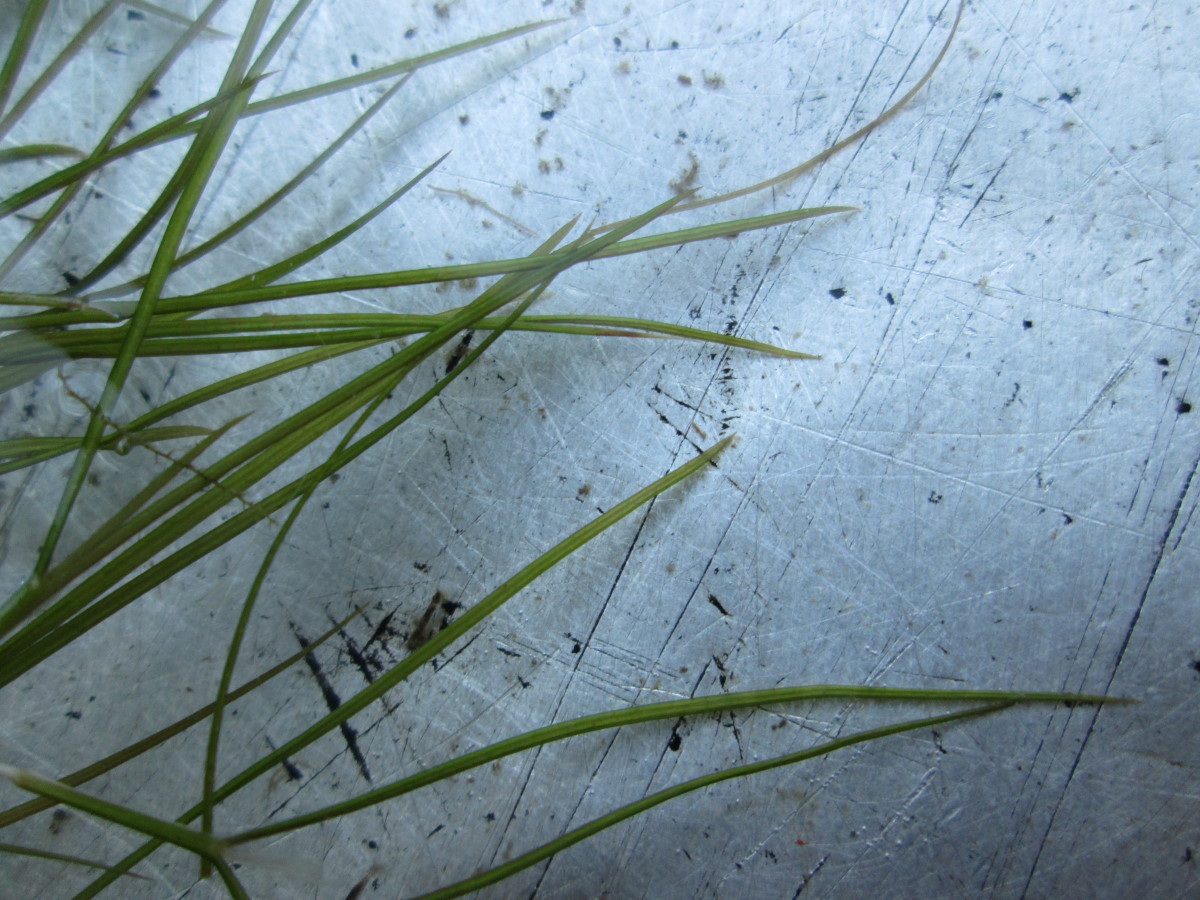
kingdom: Plantae
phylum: Tracheophyta
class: Liliopsida
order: Alismatales
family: Potamogetonaceae
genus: Stuckenia
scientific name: Stuckenia pectinata
